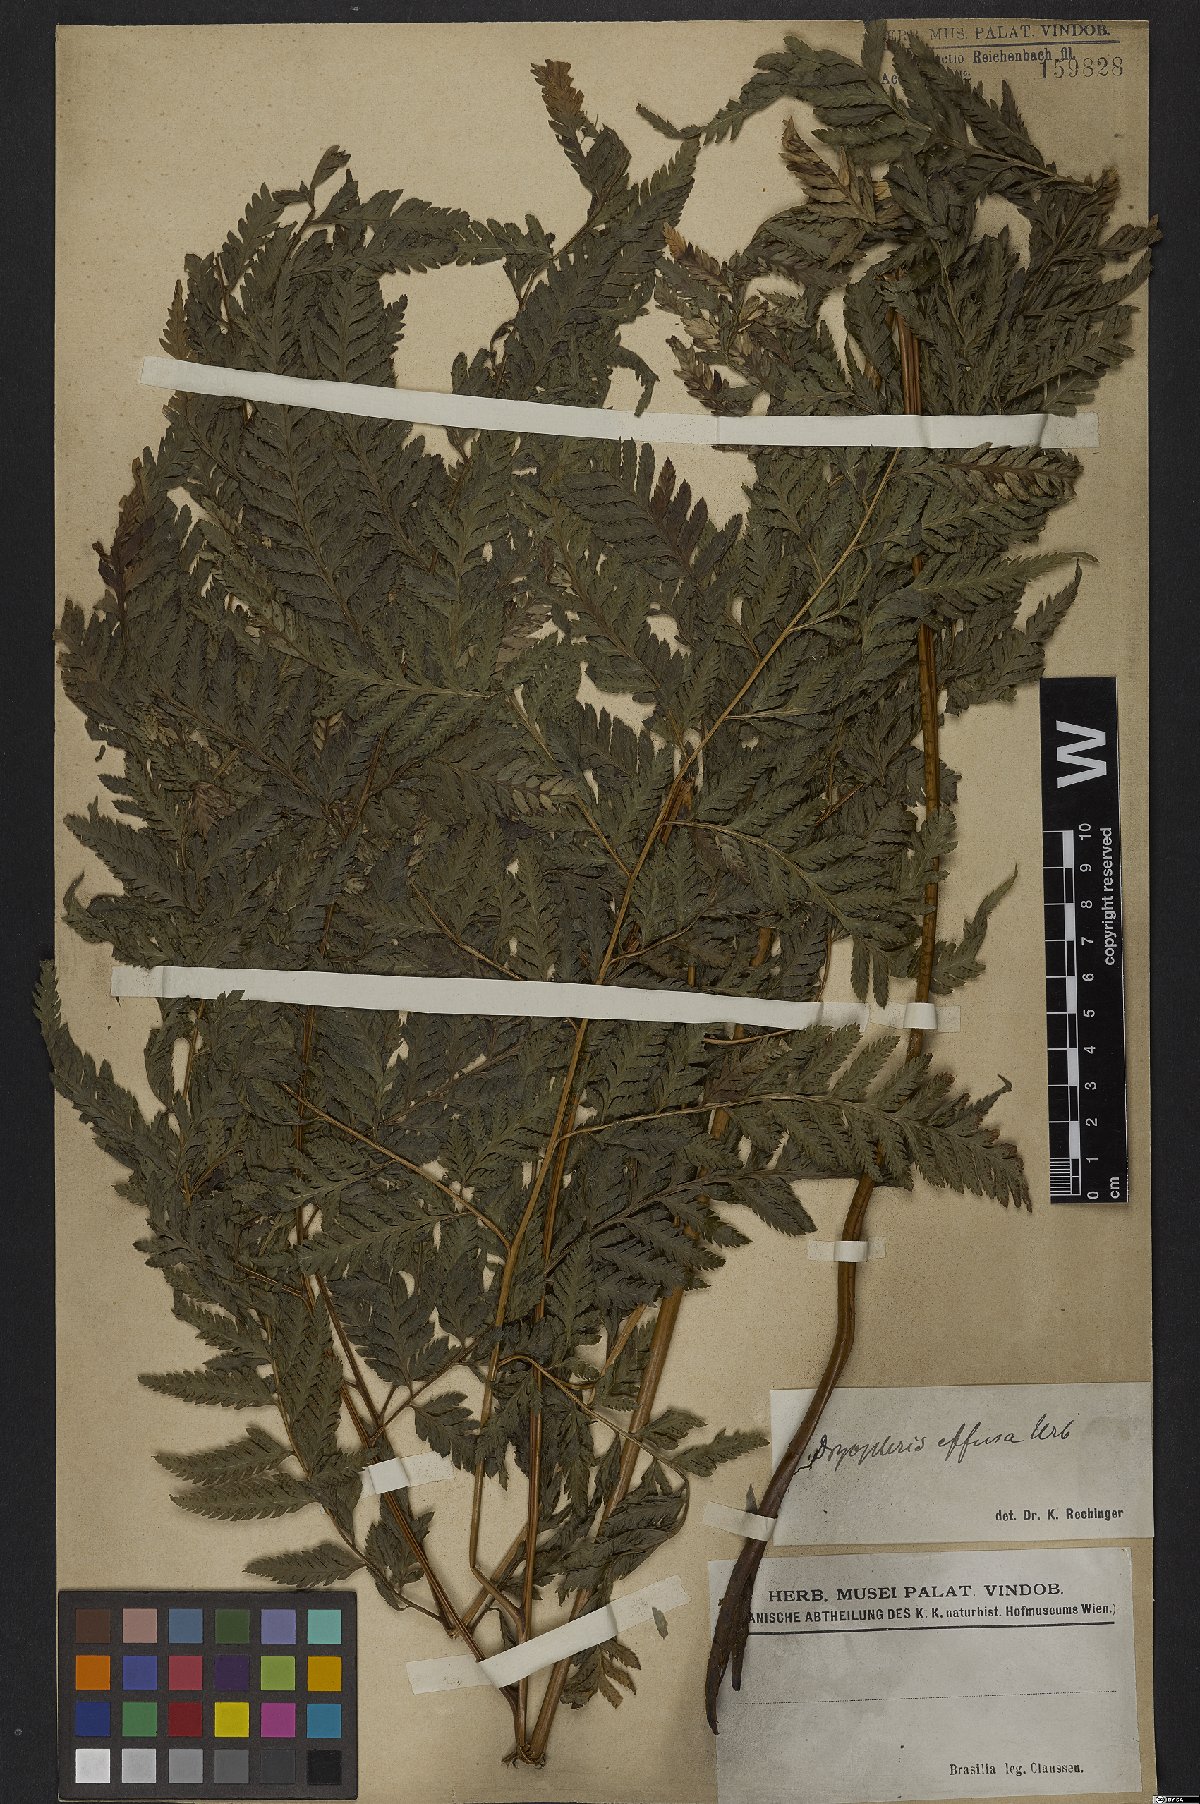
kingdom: Plantae
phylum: Tracheophyta
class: Polypodiopsida
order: Polypodiales
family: Dryopteridaceae
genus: Parapolystichum
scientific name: Parapolystichum effusum
